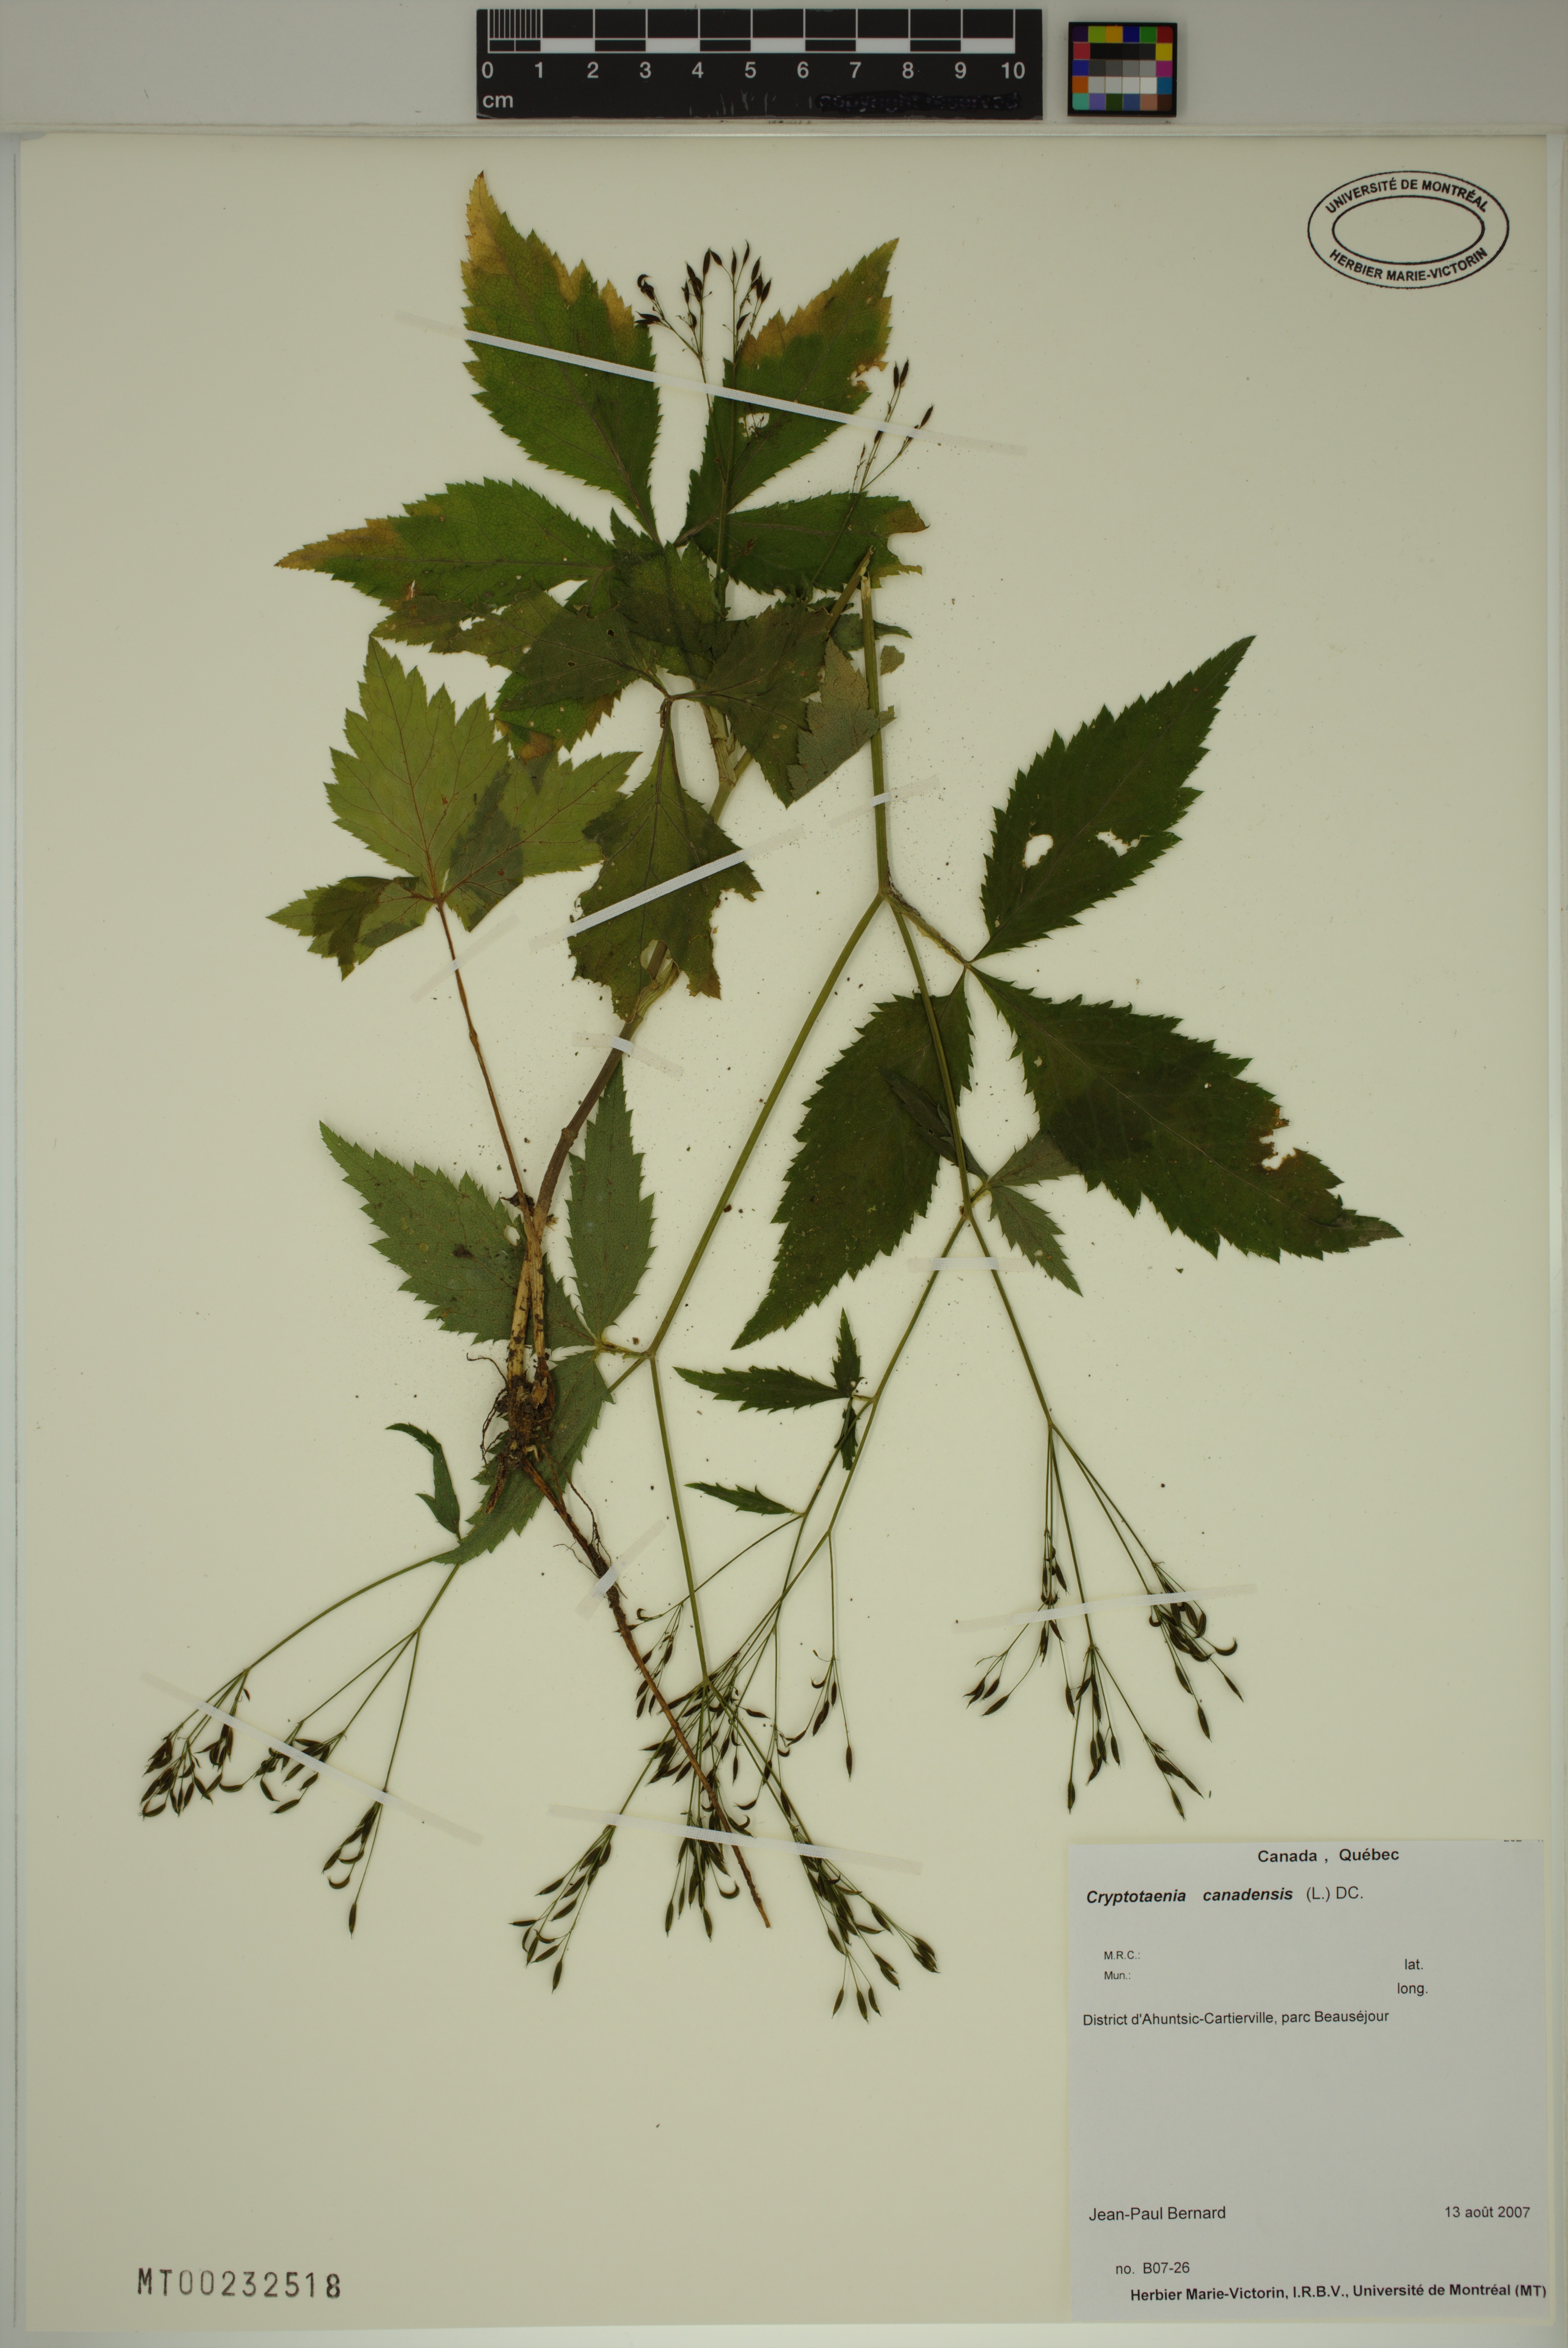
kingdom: Plantae
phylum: Tracheophyta
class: Magnoliopsida
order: Apiales
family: Apiaceae
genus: Cryptotaenia
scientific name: Cryptotaenia canadensis
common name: Honewort
